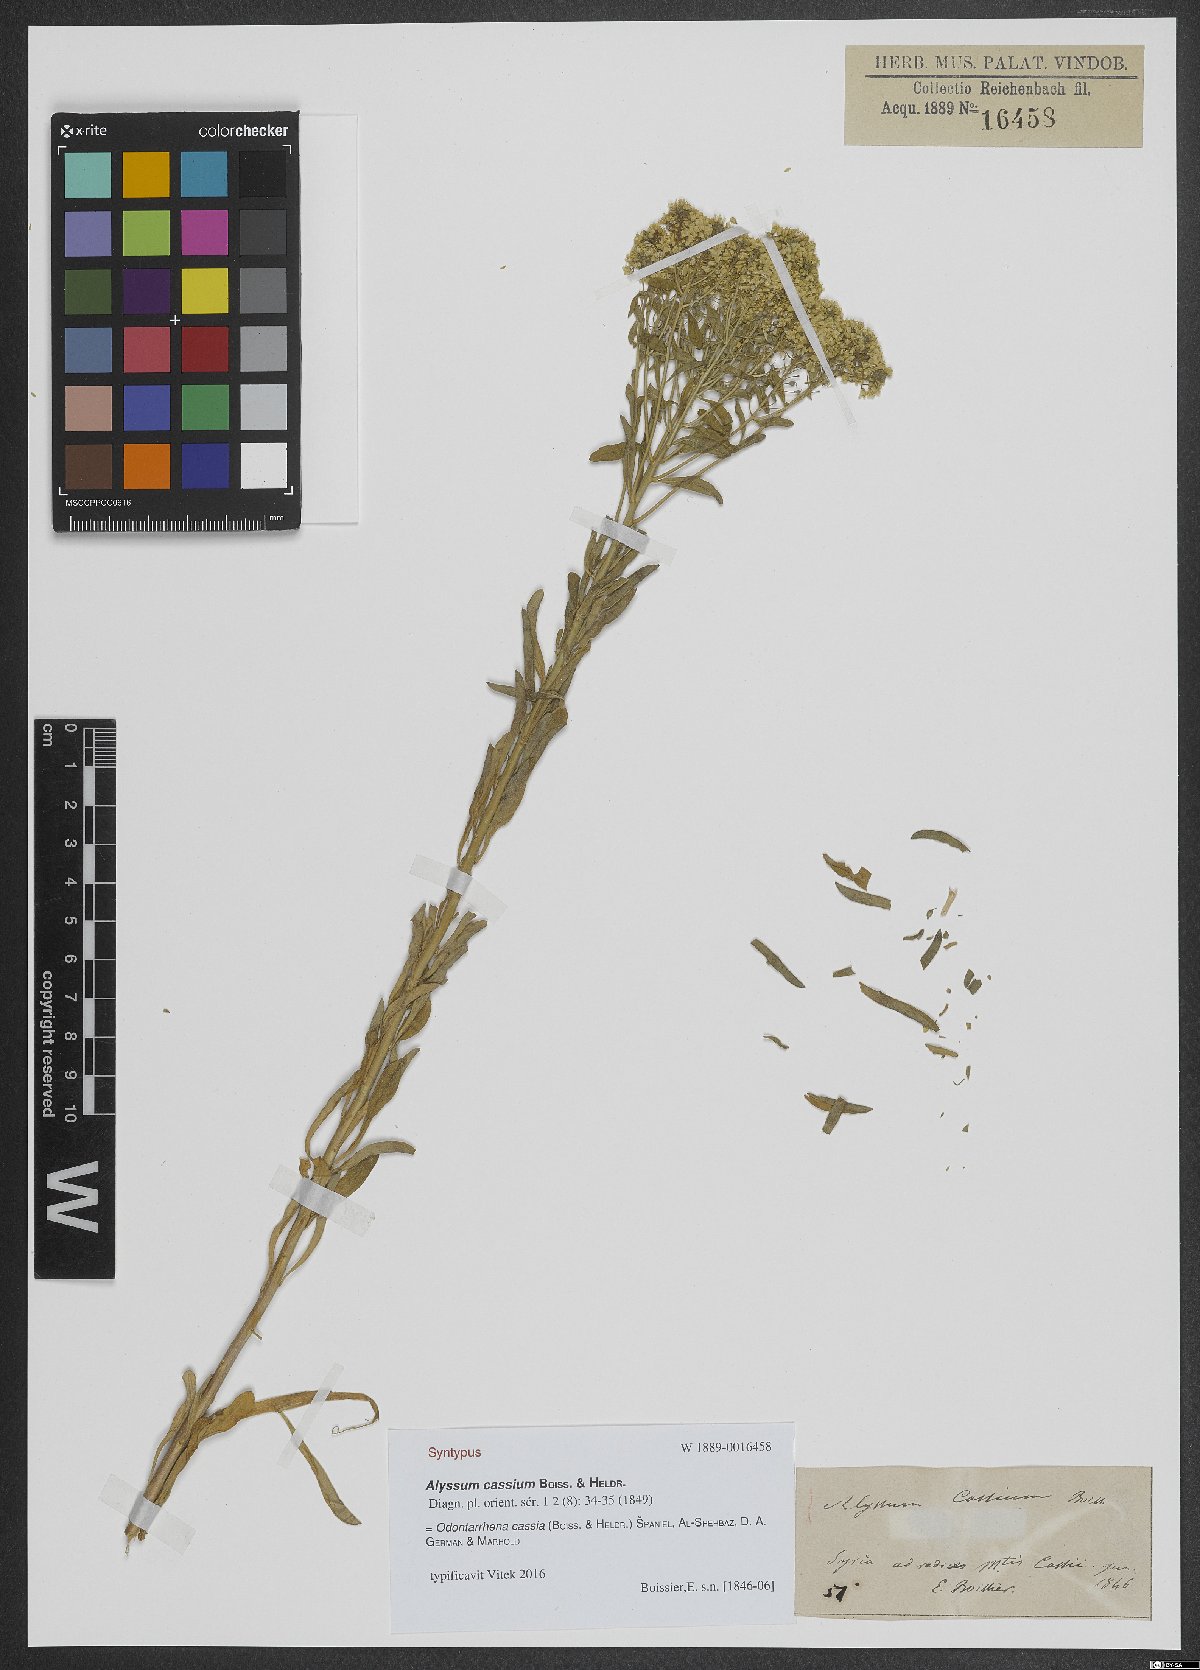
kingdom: Plantae
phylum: Tracheophyta
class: Magnoliopsida
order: Brassicales
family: Brassicaceae
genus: Odontarrhena
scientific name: Odontarrhena cassia
